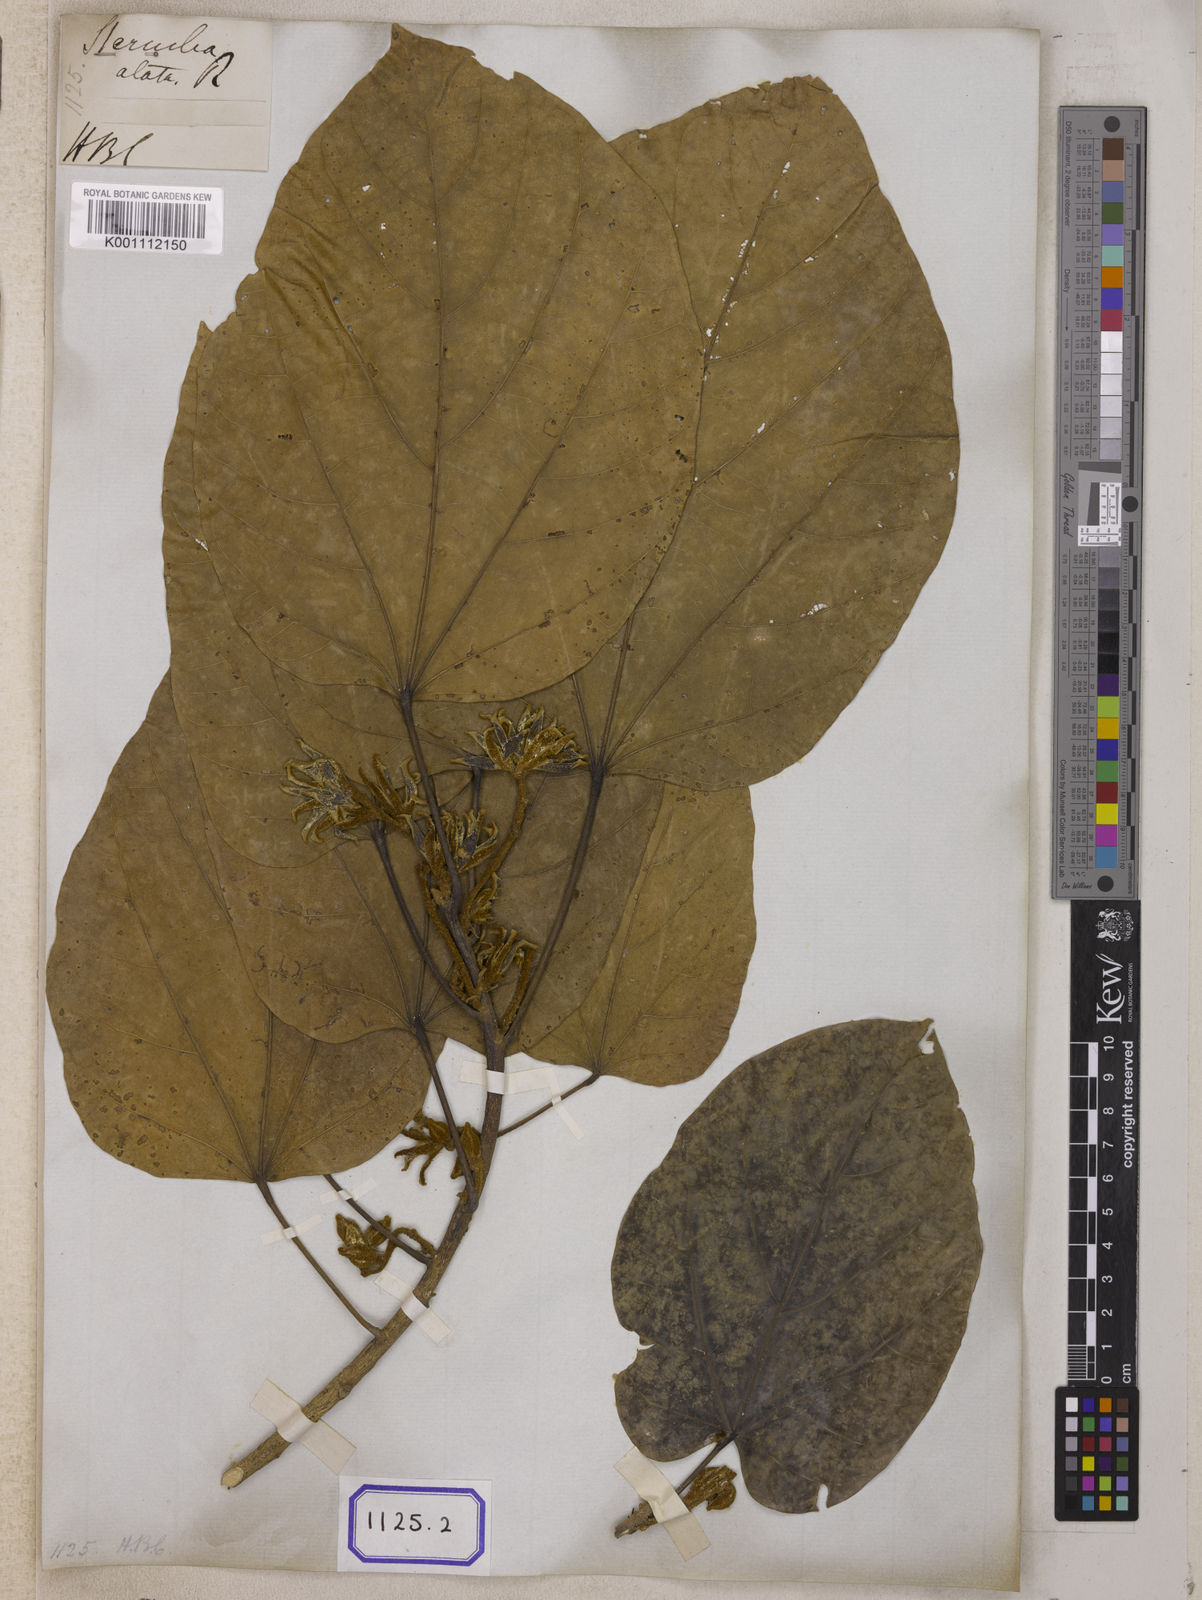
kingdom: Plantae
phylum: Tracheophyta
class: Magnoliopsida
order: Malvales
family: Malvaceae
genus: Pterygota
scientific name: Pterygota alata
